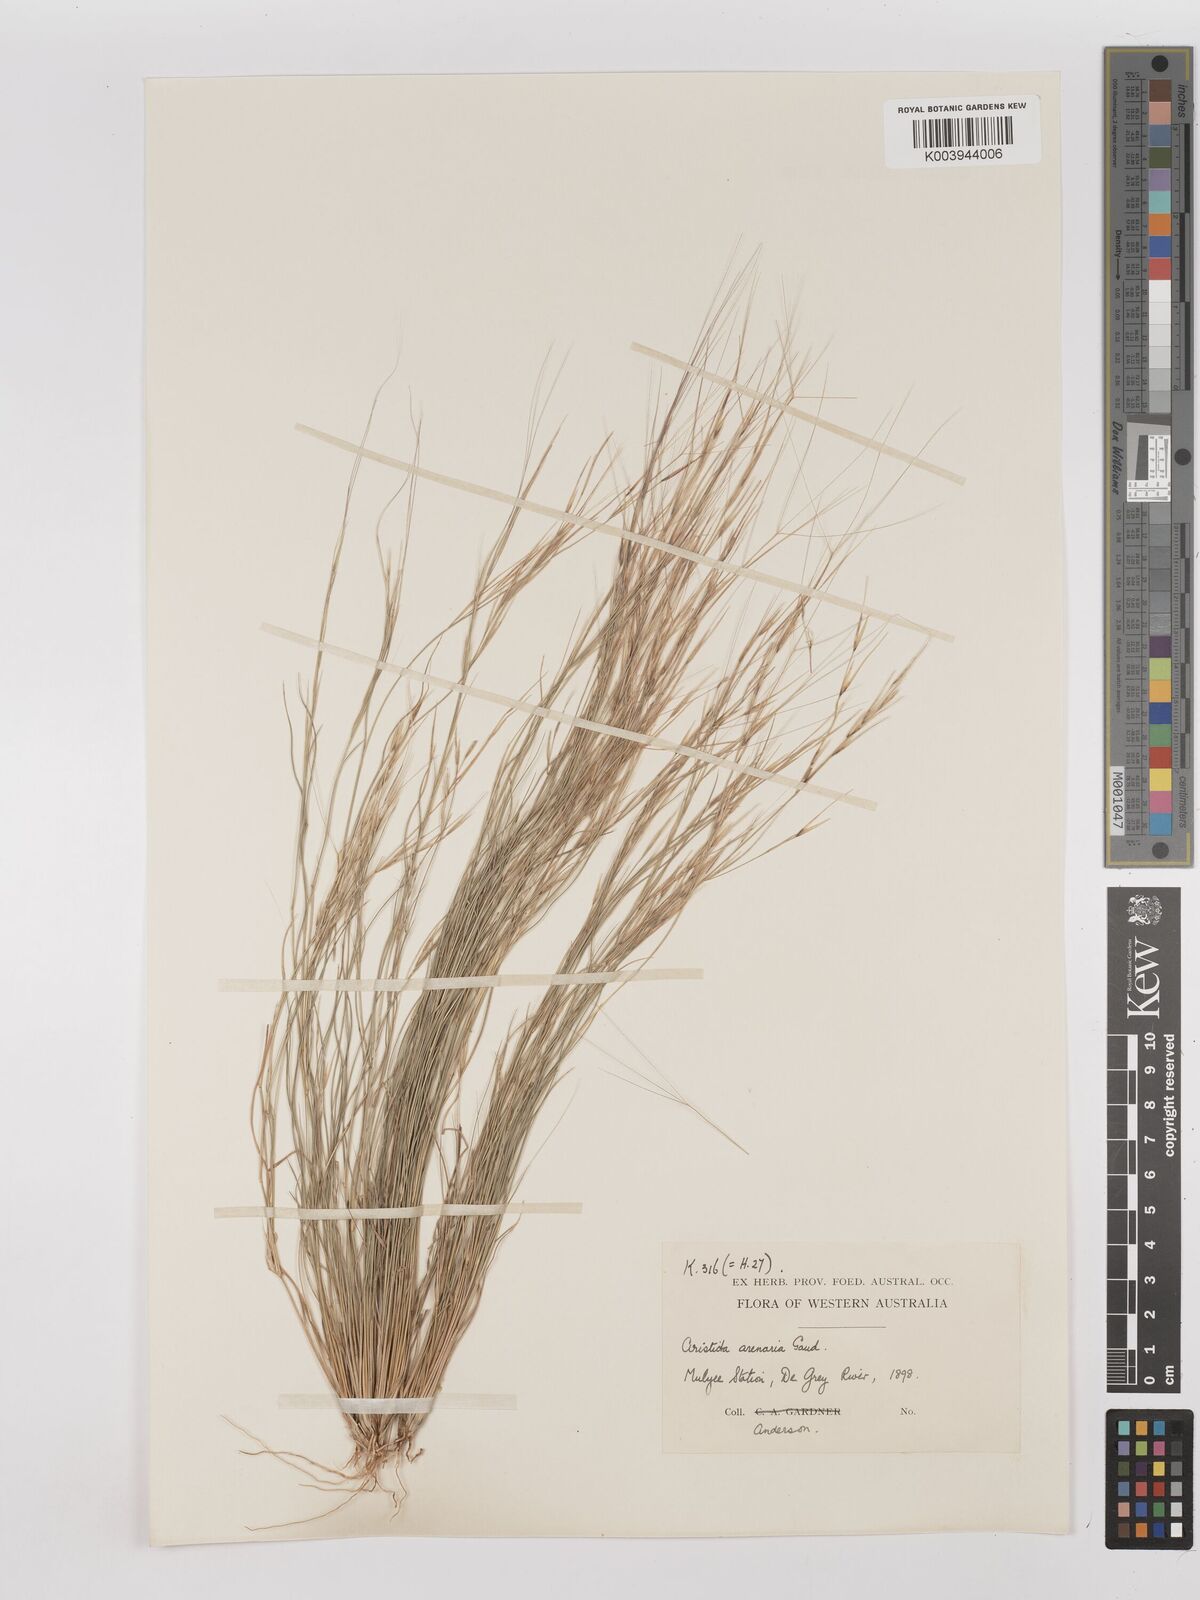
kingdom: Plantae
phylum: Tracheophyta
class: Liliopsida
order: Poales
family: Poaceae
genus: Aristida
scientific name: Aristida contorta
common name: Bunch kerosene grass
